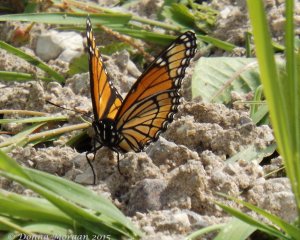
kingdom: Animalia
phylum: Arthropoda
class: Insecta
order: Lepidoptera
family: Nymphalidae
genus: Limenitis
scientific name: Limenitis archippus
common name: Viceroy
